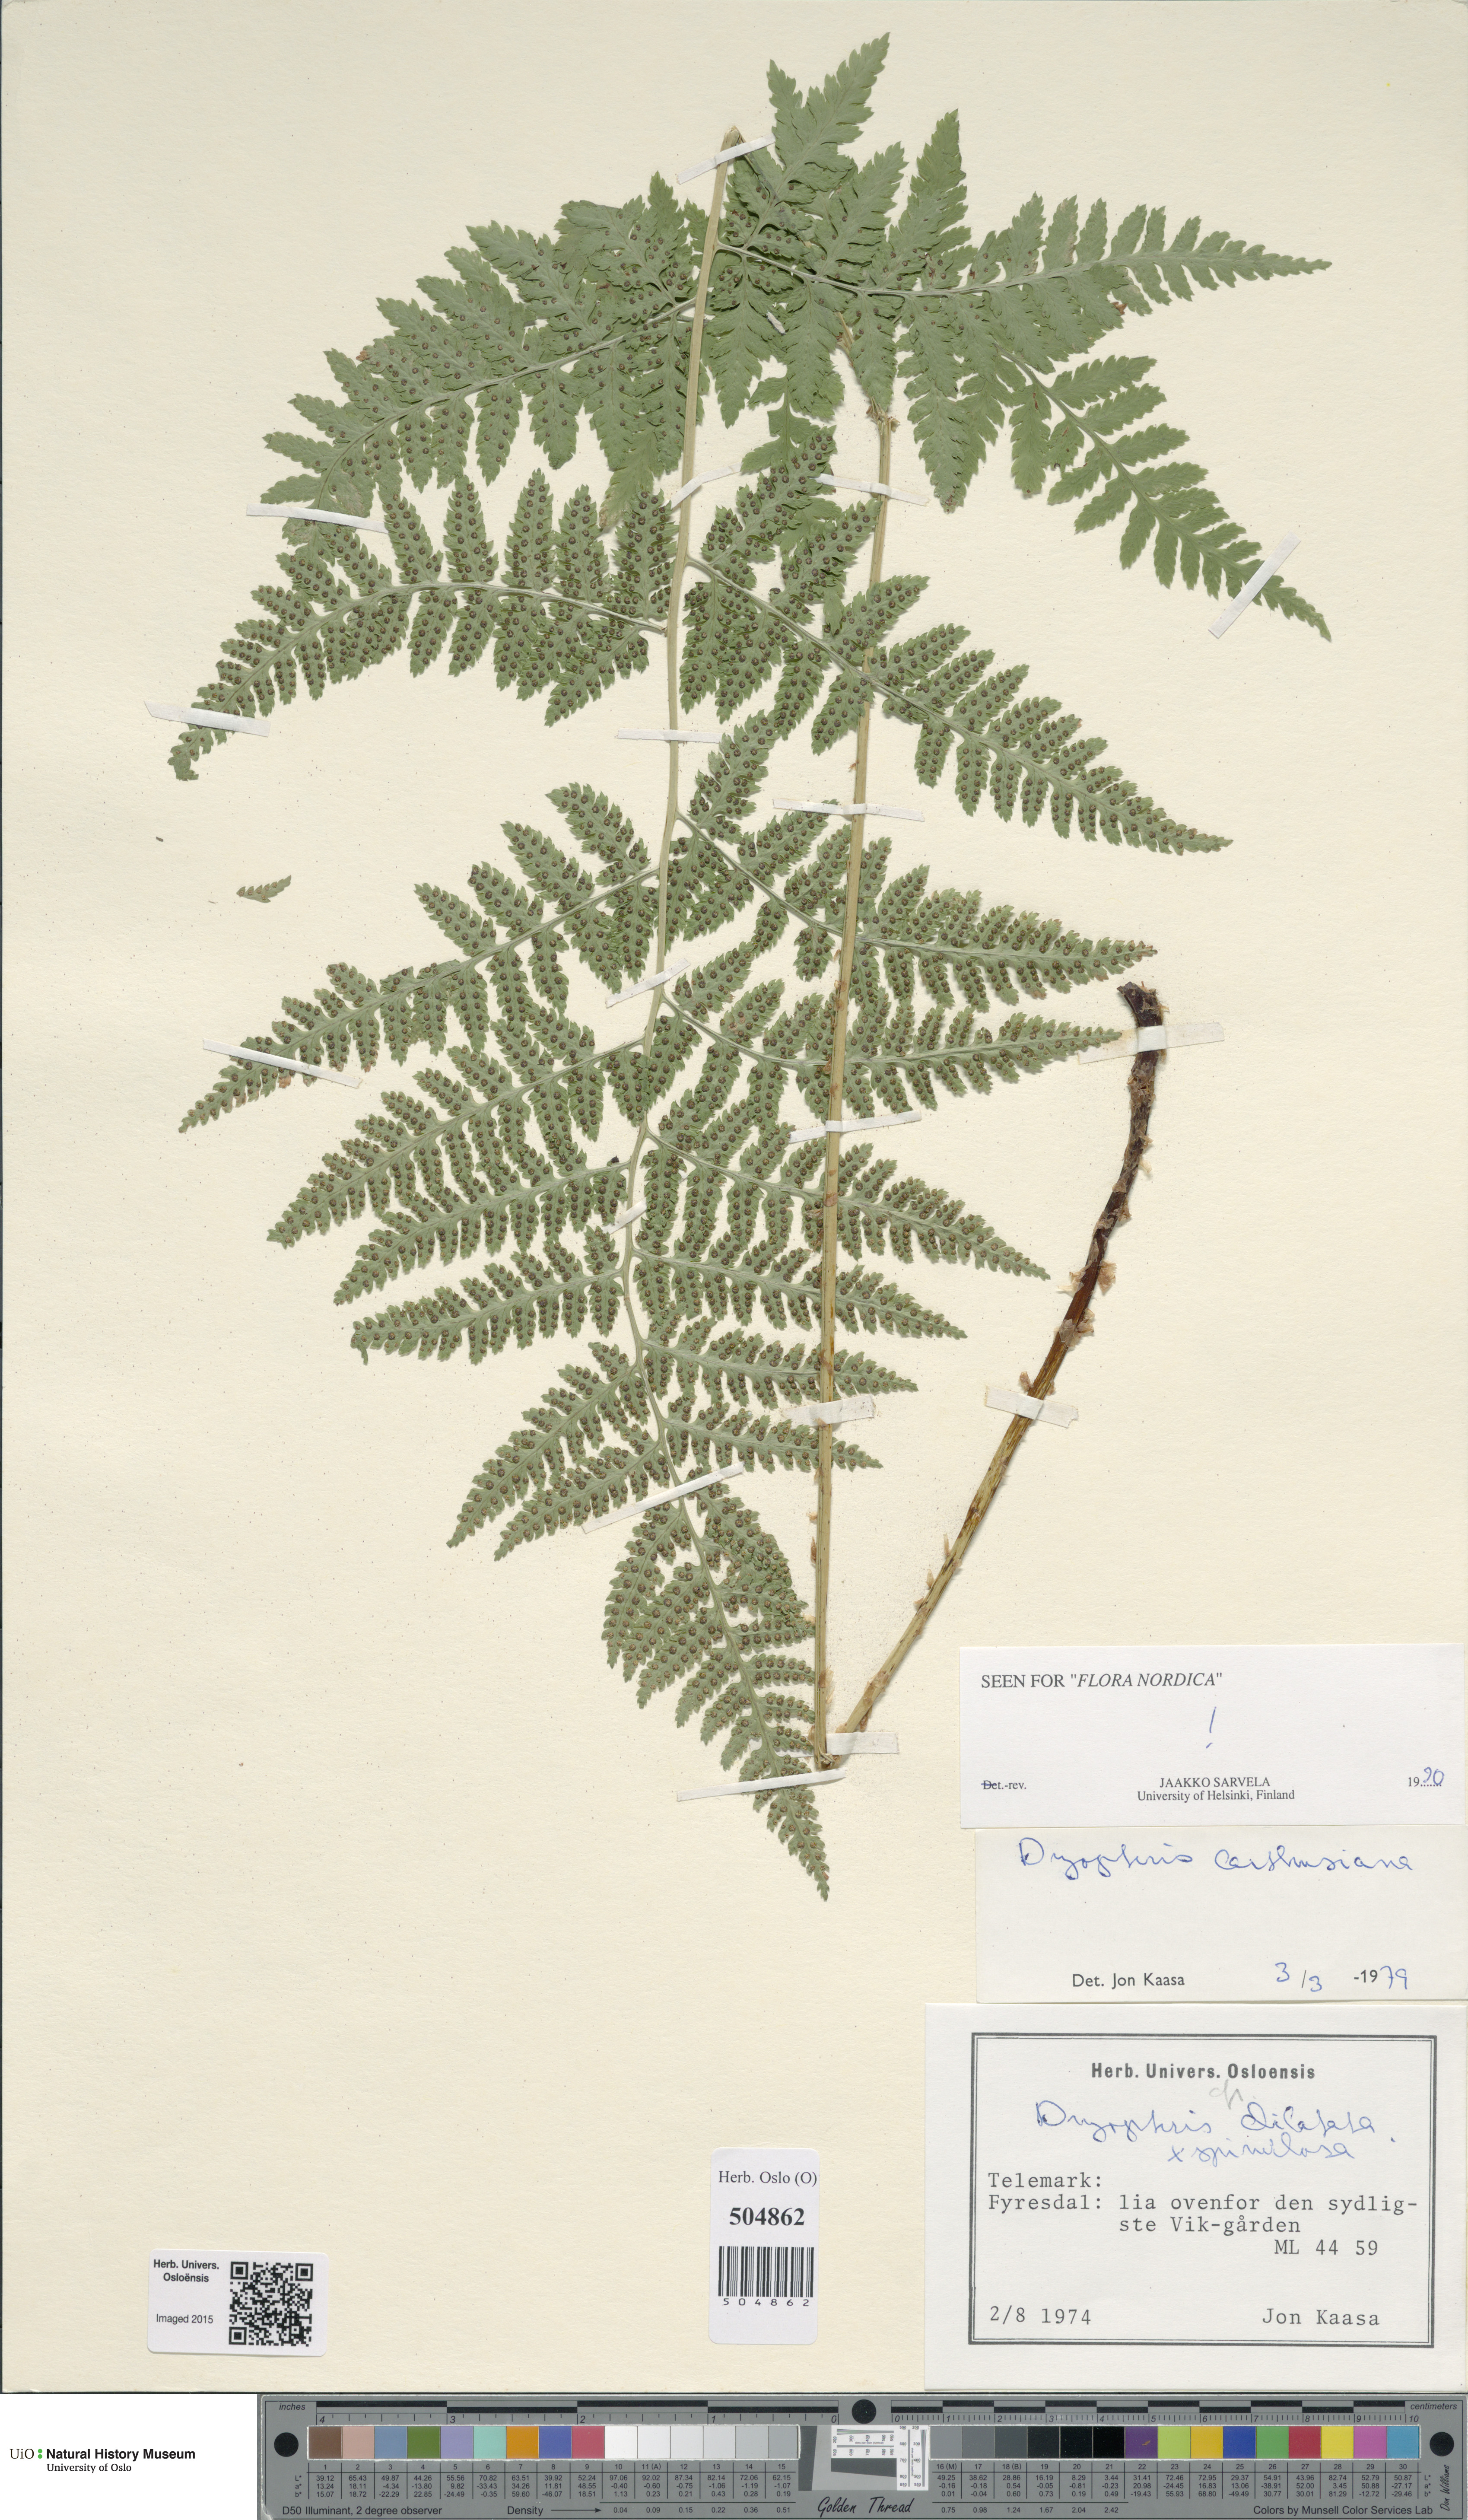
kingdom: Plantae
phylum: Tracheophyta
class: Polypodiopsida
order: Polypodiales
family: Dryopteridaceae
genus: Dryopteris
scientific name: Dryopteris carthusiana
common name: Narrow buckler-fern
